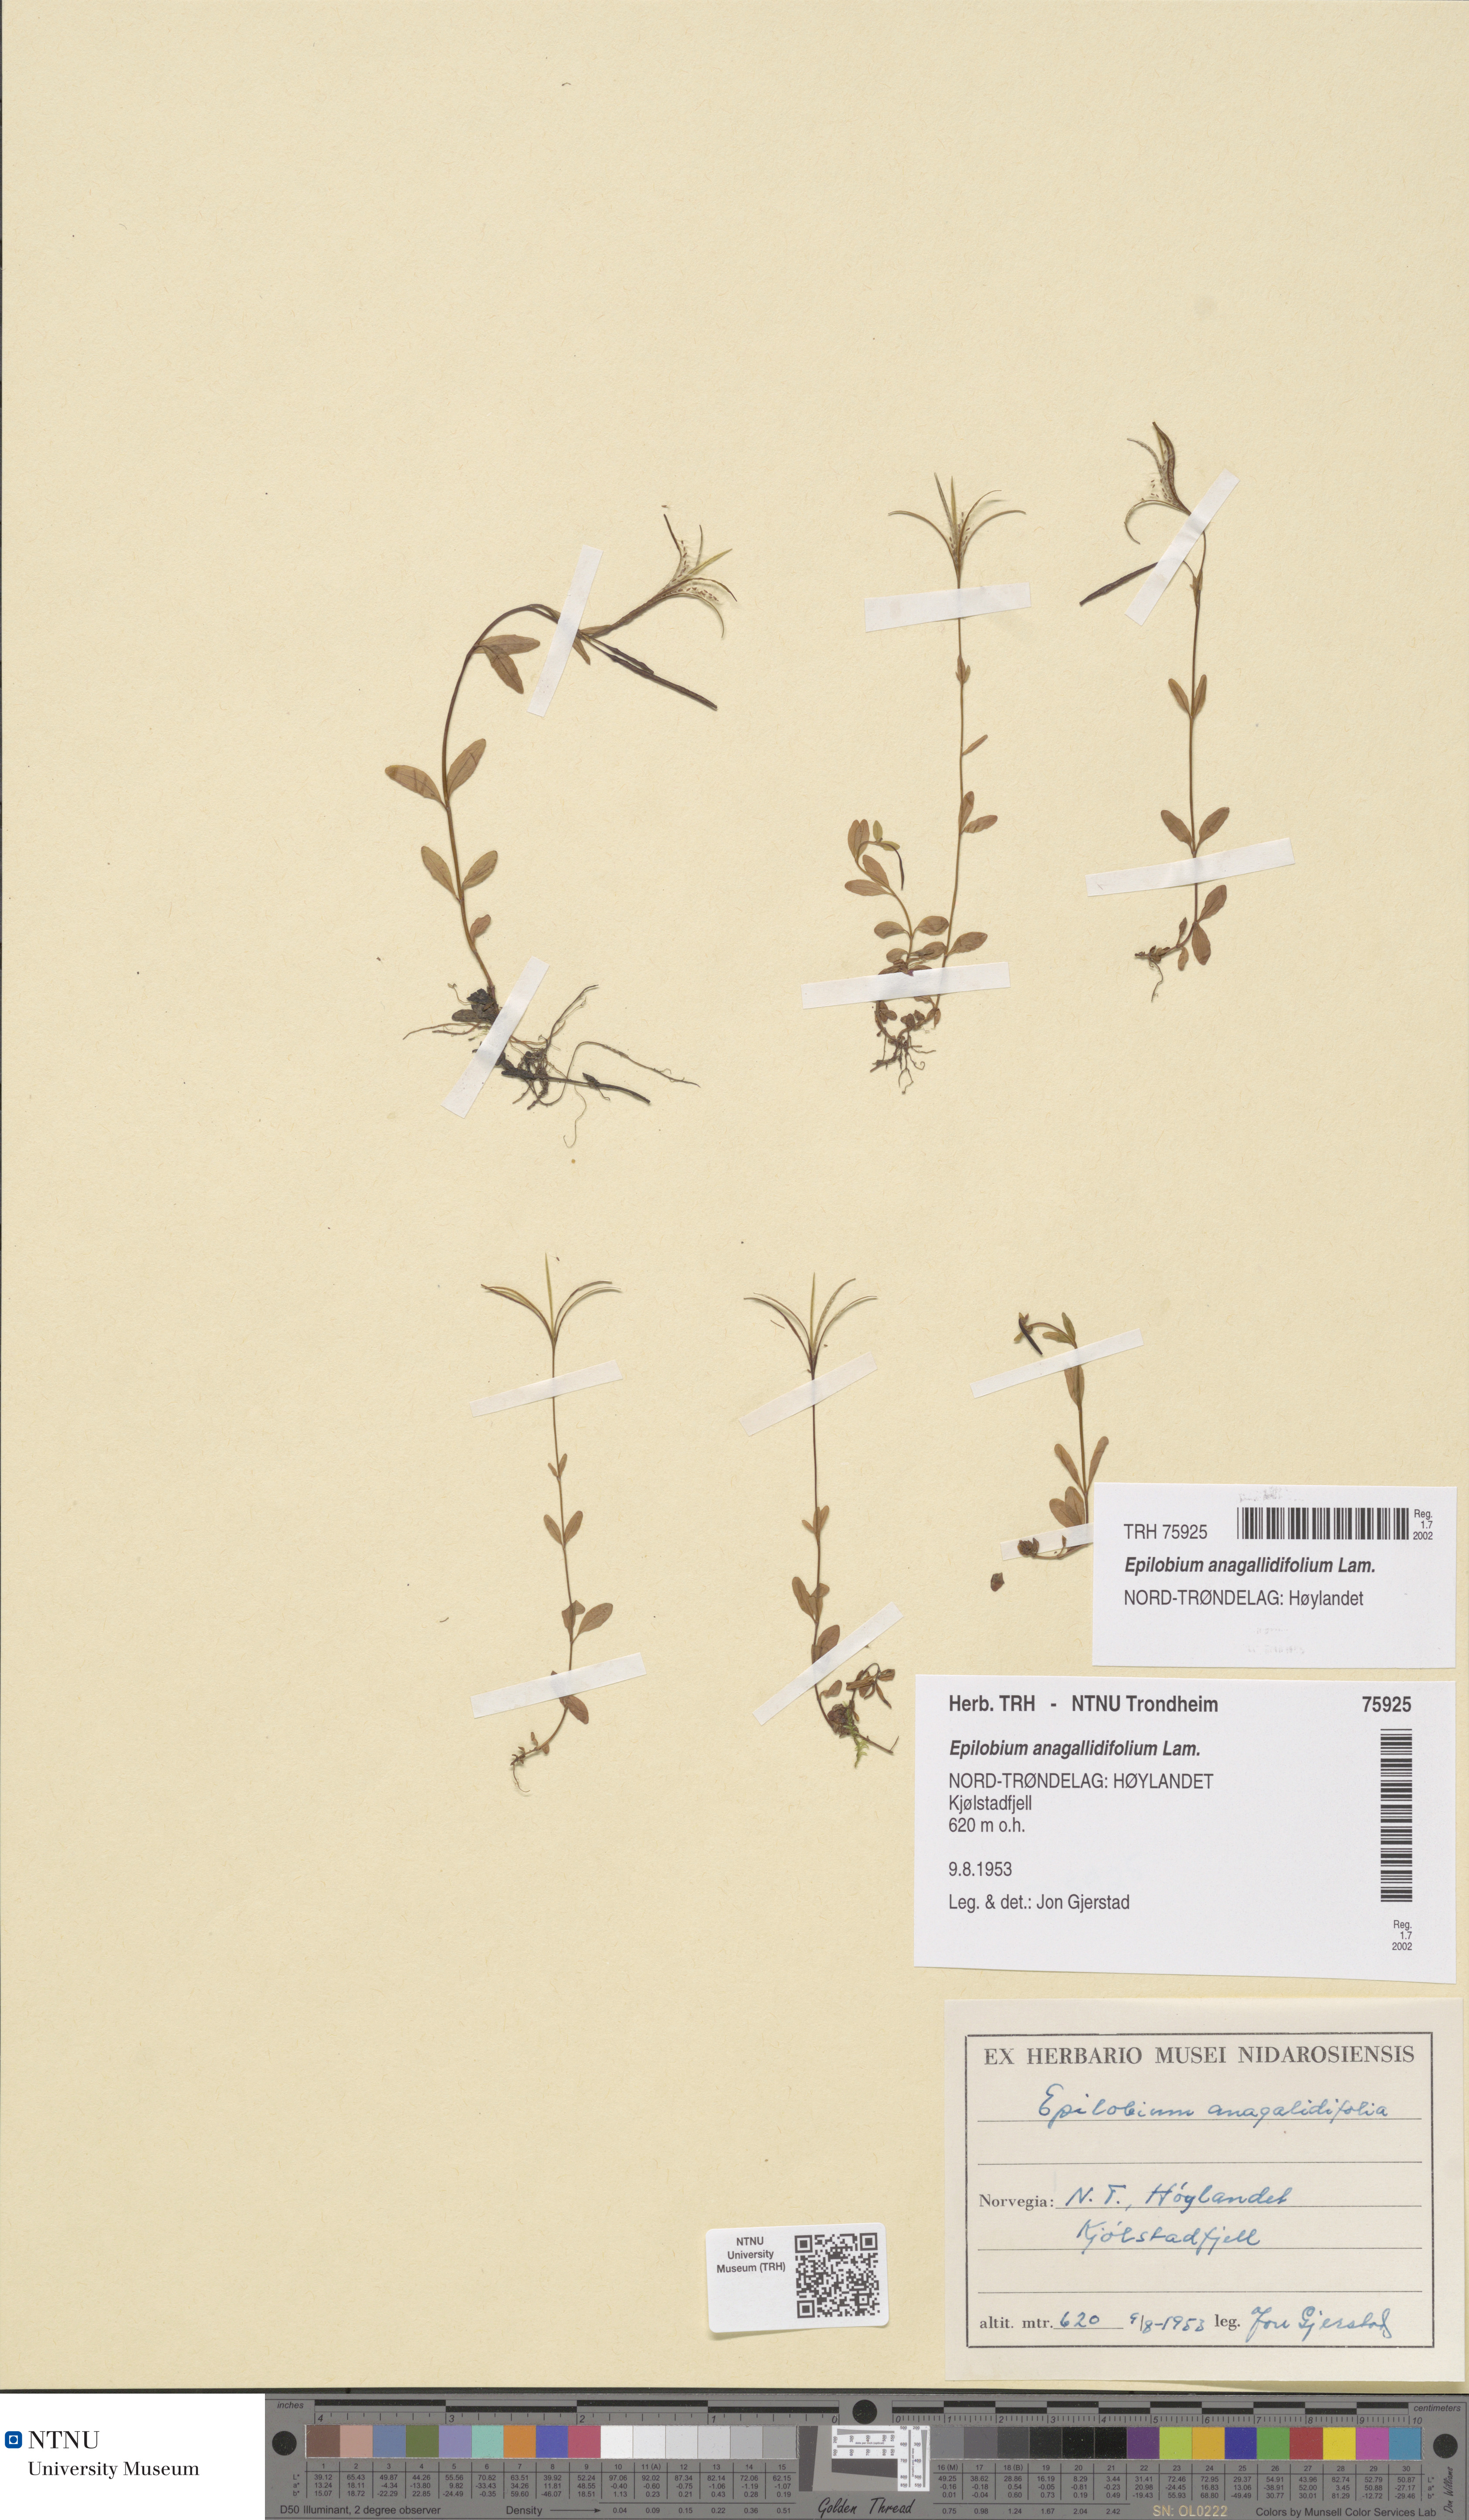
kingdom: Plantae
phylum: Tracheophyta
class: Magnoliopsida
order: Myrtales
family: Onagraceae
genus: Epilobium
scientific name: Epilobium anagallidifolium
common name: Alpine willowherb
